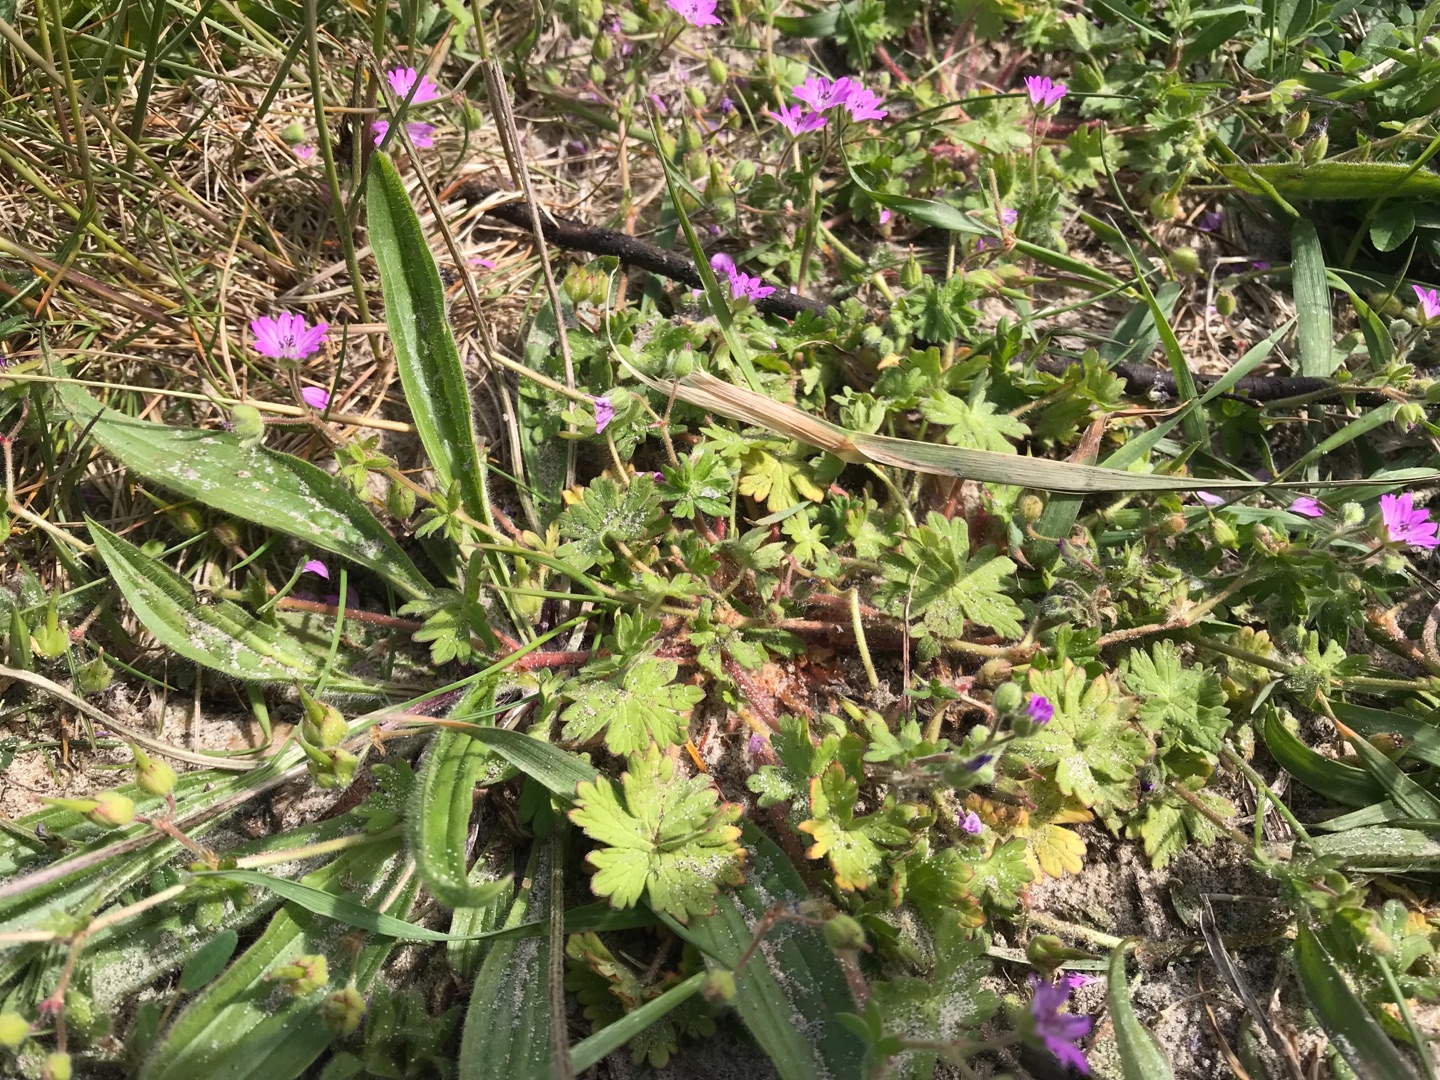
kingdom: Plantae
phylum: Tracheophyta
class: Magnoliopsida
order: Geraniales
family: Geraniaceae
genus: Geranium
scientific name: Geranium molle
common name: Blød storkenæb
